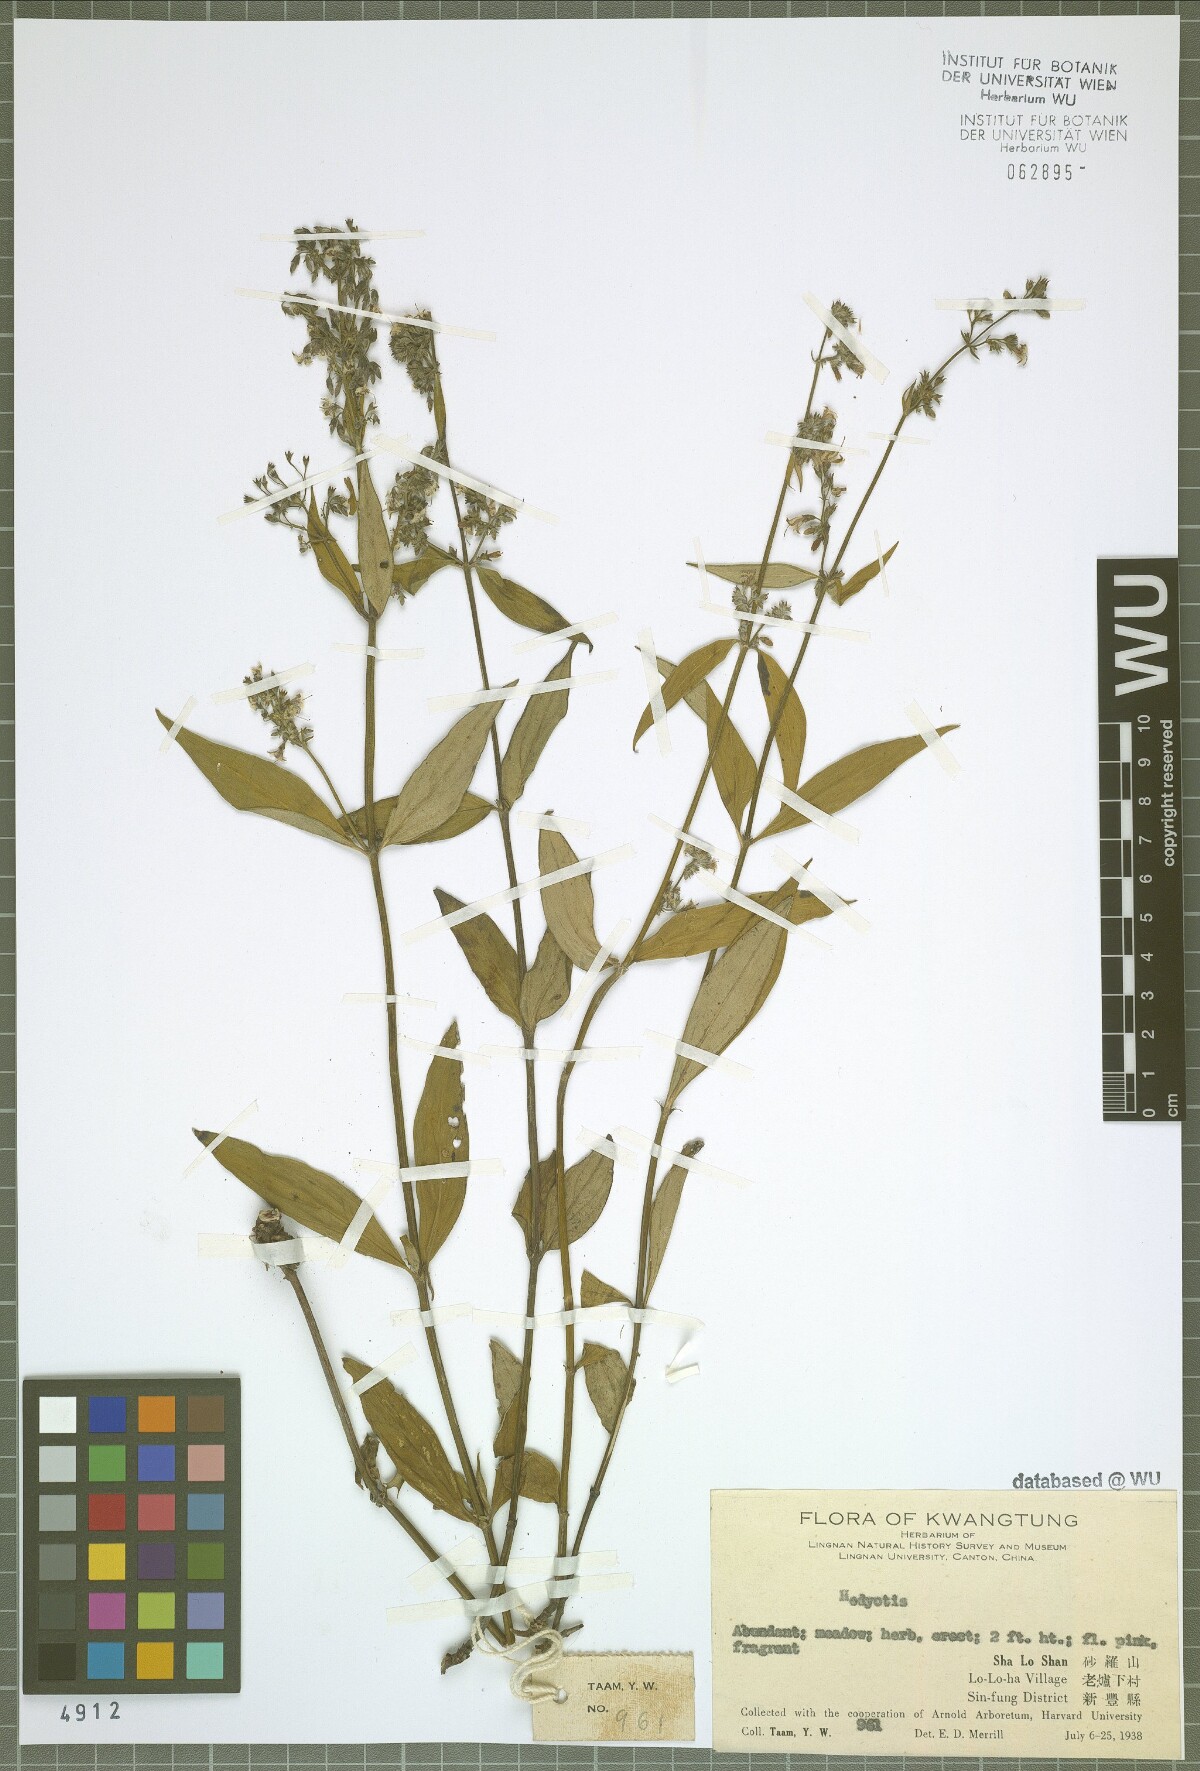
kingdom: Plantae
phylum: Tracheophyta
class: Magnoliopsida
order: Gentianales
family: Rubiaceae
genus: Hedyotis
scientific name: Hedyotis
